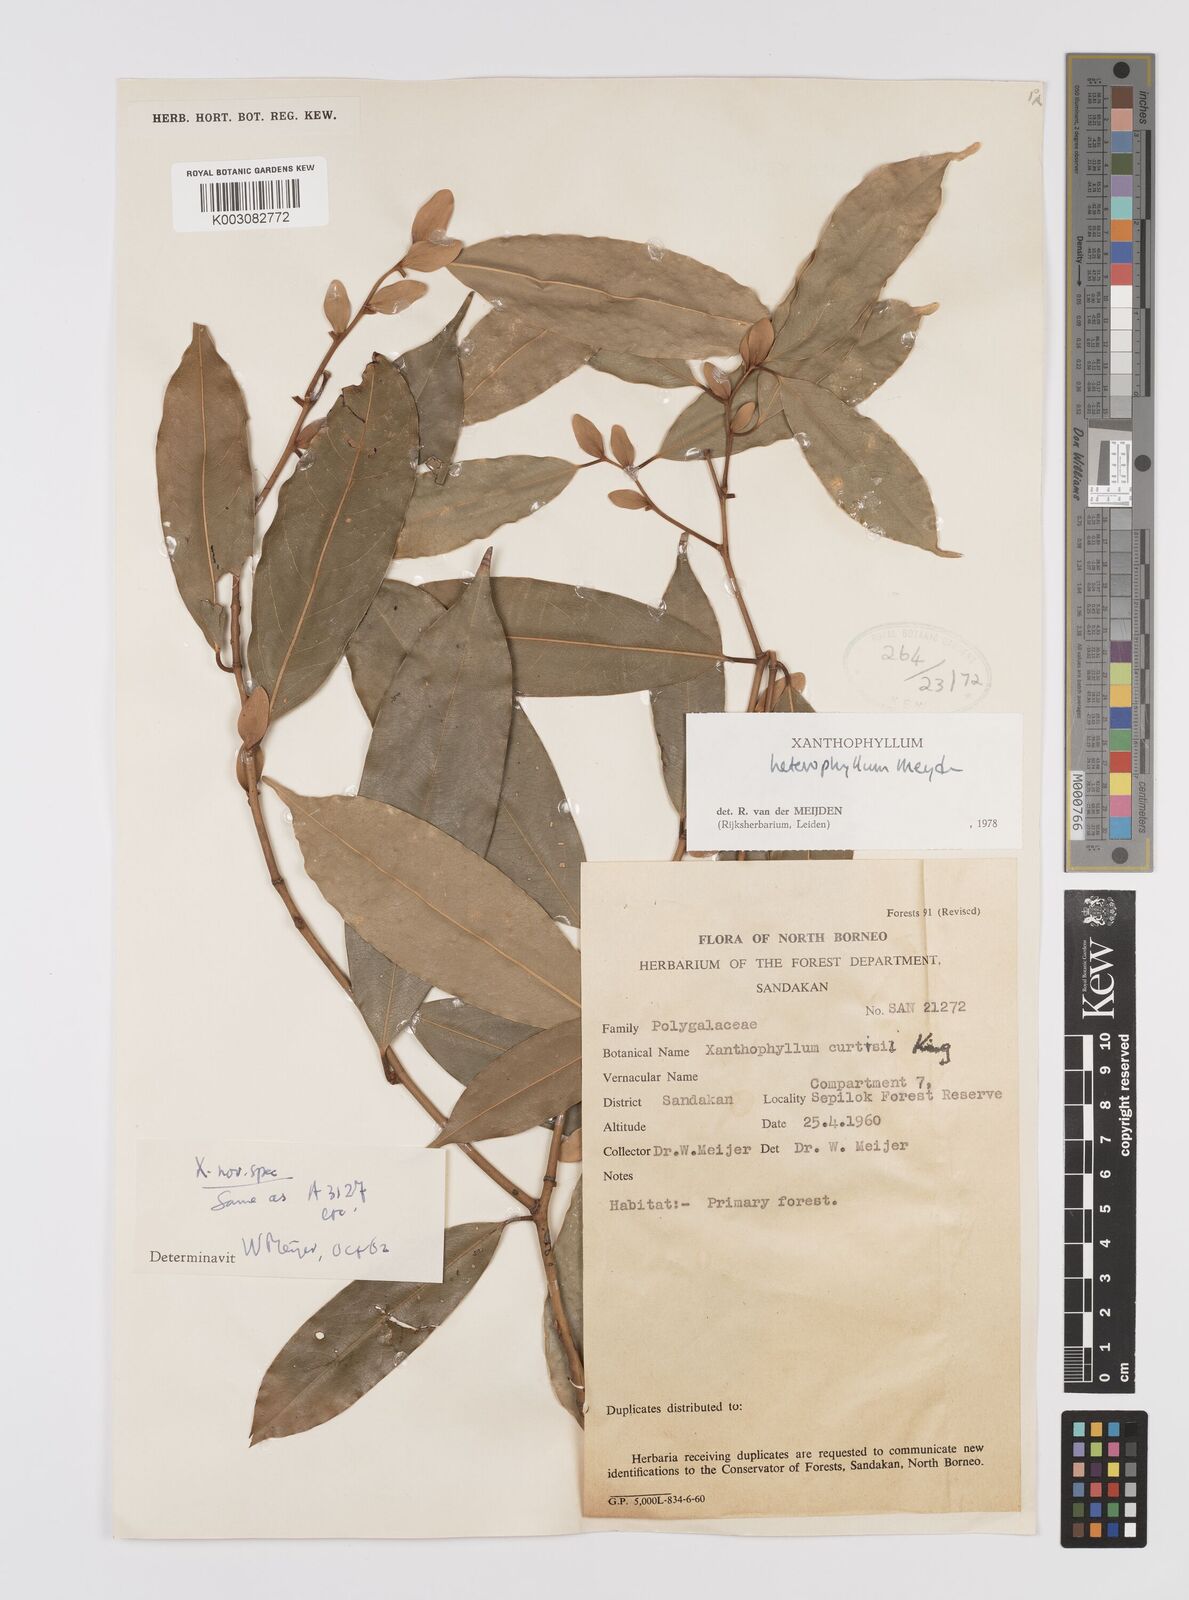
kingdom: Plantae
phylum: Tracheophyta
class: Magnoliopsida
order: Fabales
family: Polygalaceae
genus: Xanthophyllum
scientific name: Xanthophyllum heterophyllum
